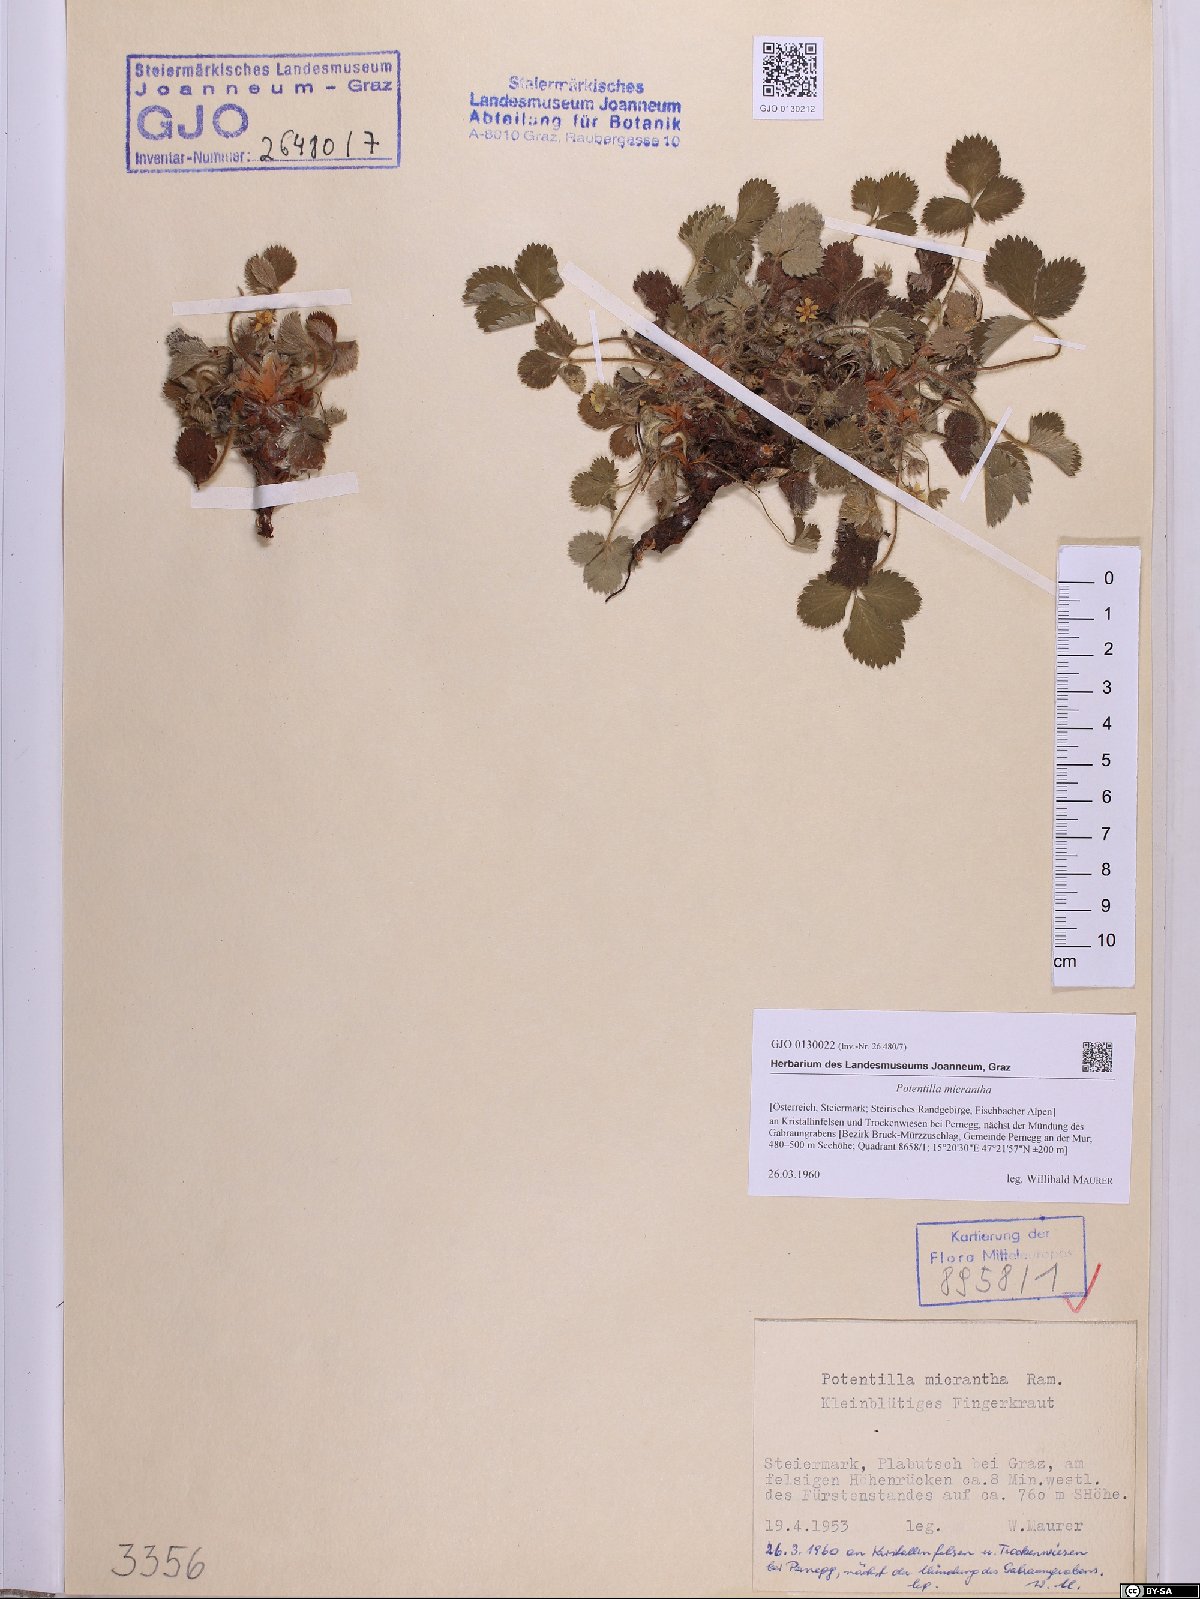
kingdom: Plantae
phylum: Tracheophyta
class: Magnoliopsida
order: Rosales
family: Rosaceae
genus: Potentilla
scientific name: Potentilla micrantha
